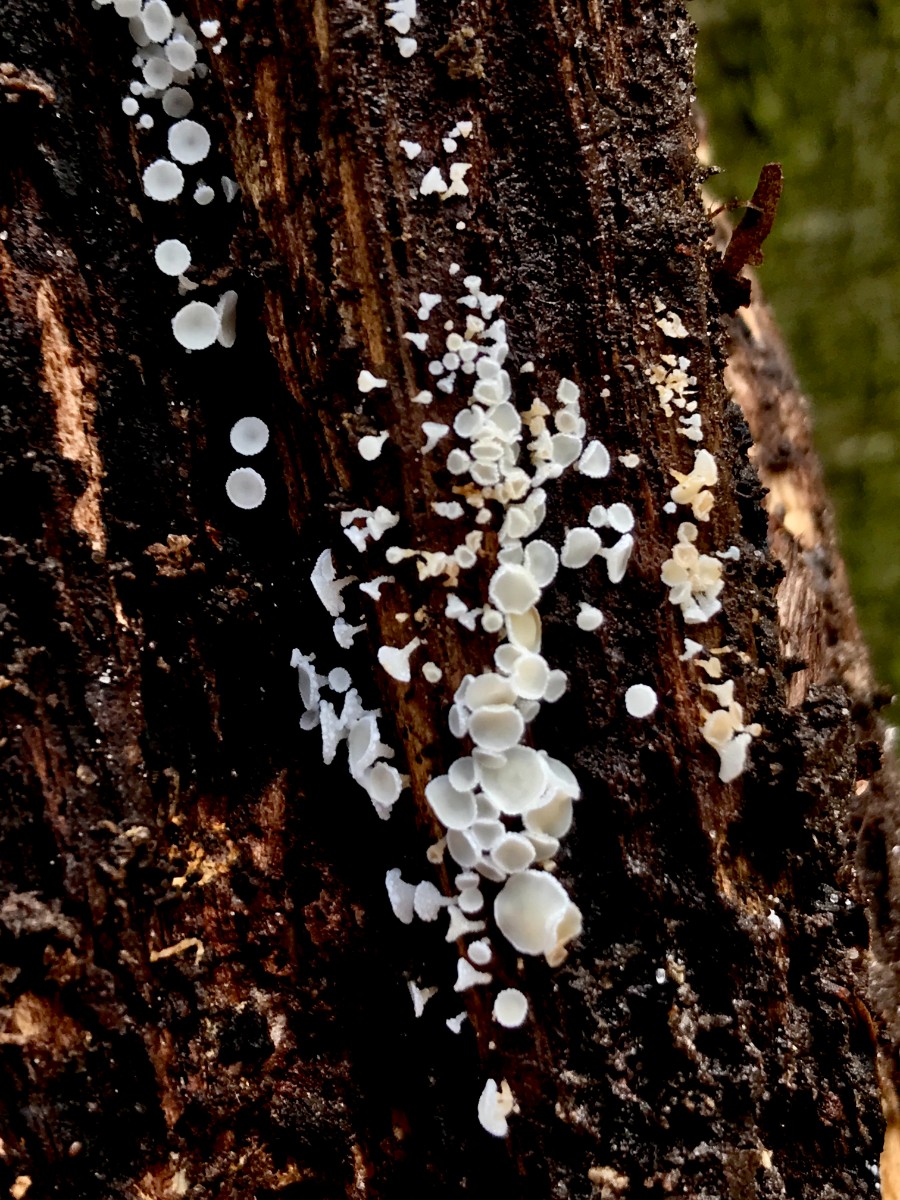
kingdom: Fungi
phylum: Ascomycota
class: Leotiomycetes
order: Helotiales
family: Lachnaceae
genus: Lachnum
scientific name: Lachnum
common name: frynseskive
